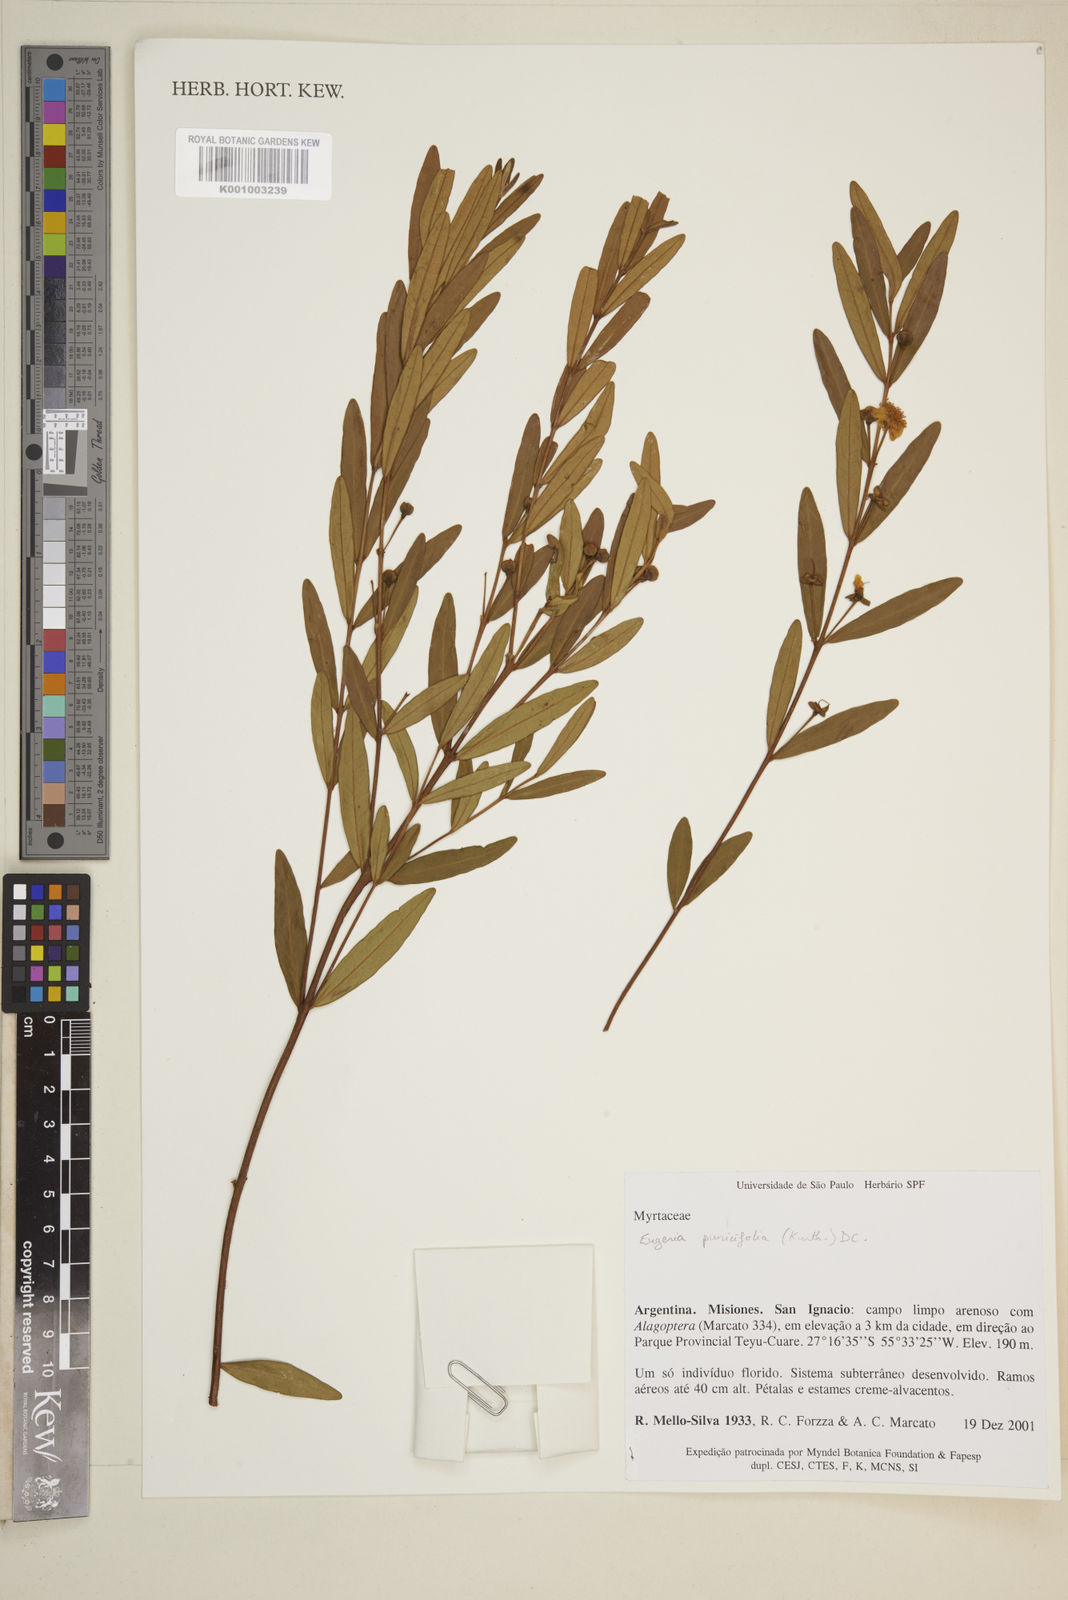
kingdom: Plantae
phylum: Tracheophyta
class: Magnoliopsida
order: Myrtales
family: Myrtaceae
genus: Eugenia
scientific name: Eugenia punicifolia
